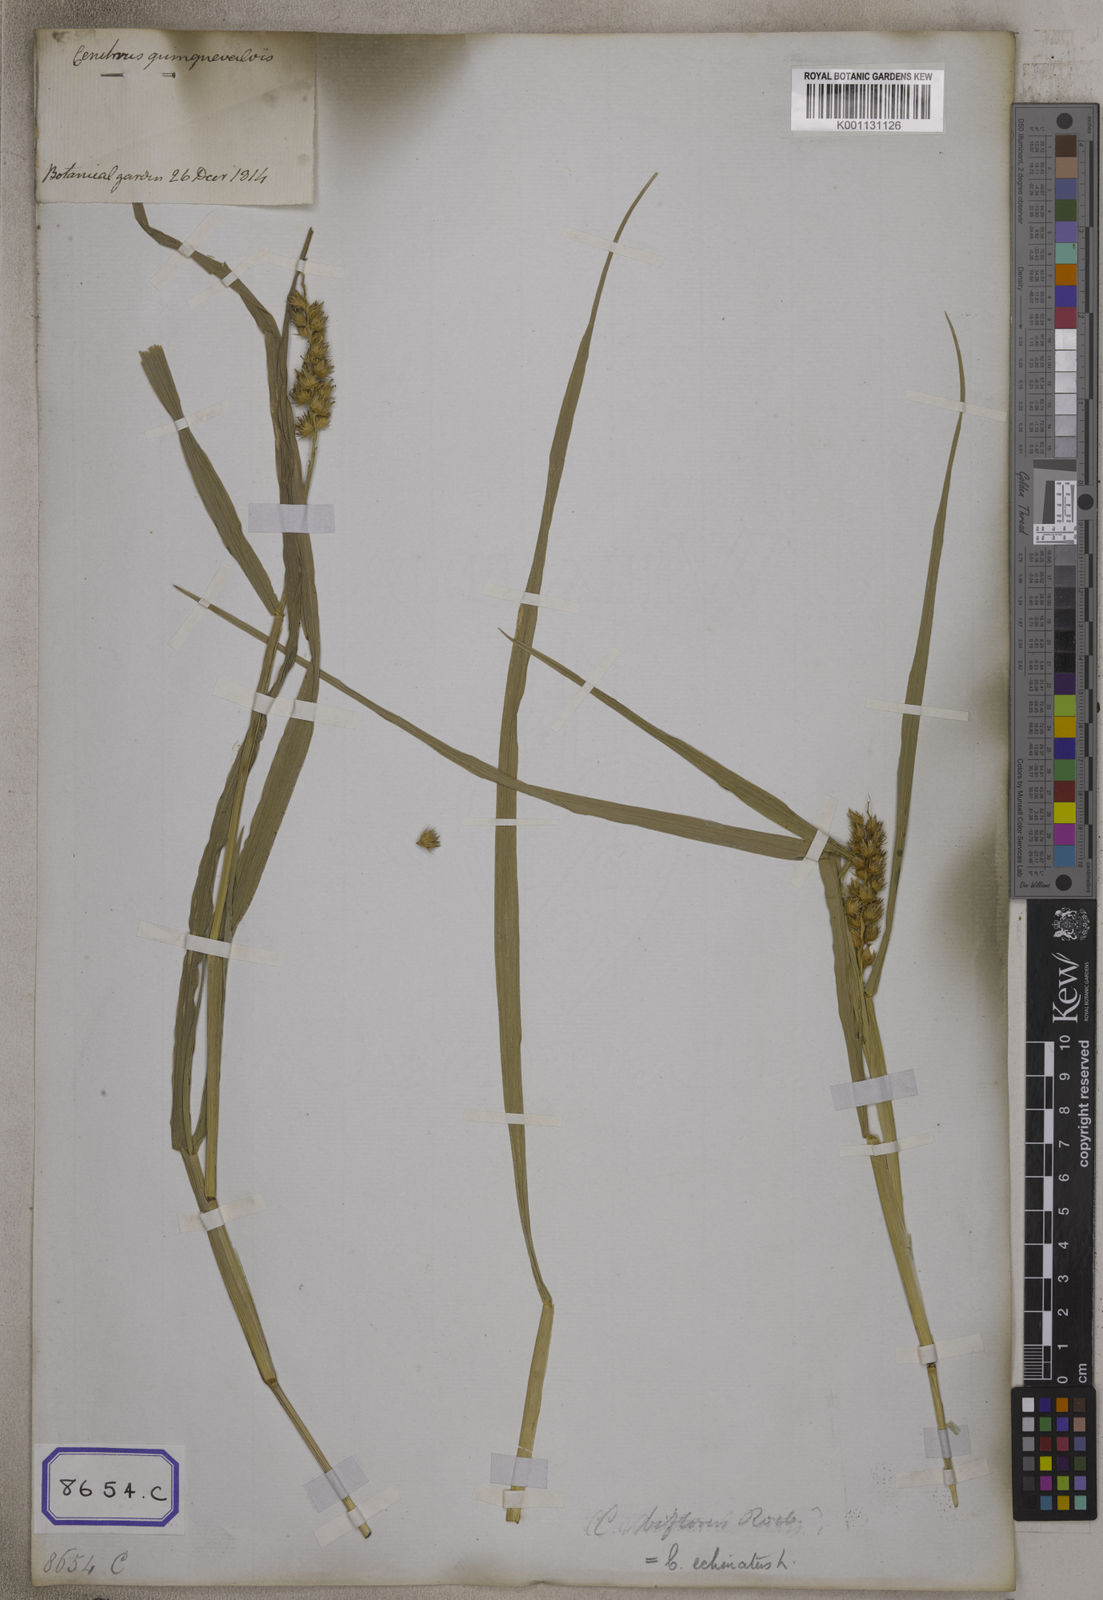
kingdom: Plantae
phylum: Tracheophyta
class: Liliopsida
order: Poales
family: Poaceae
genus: Cenchrus
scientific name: Cenchrus echinatus
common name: Southern sandbur
